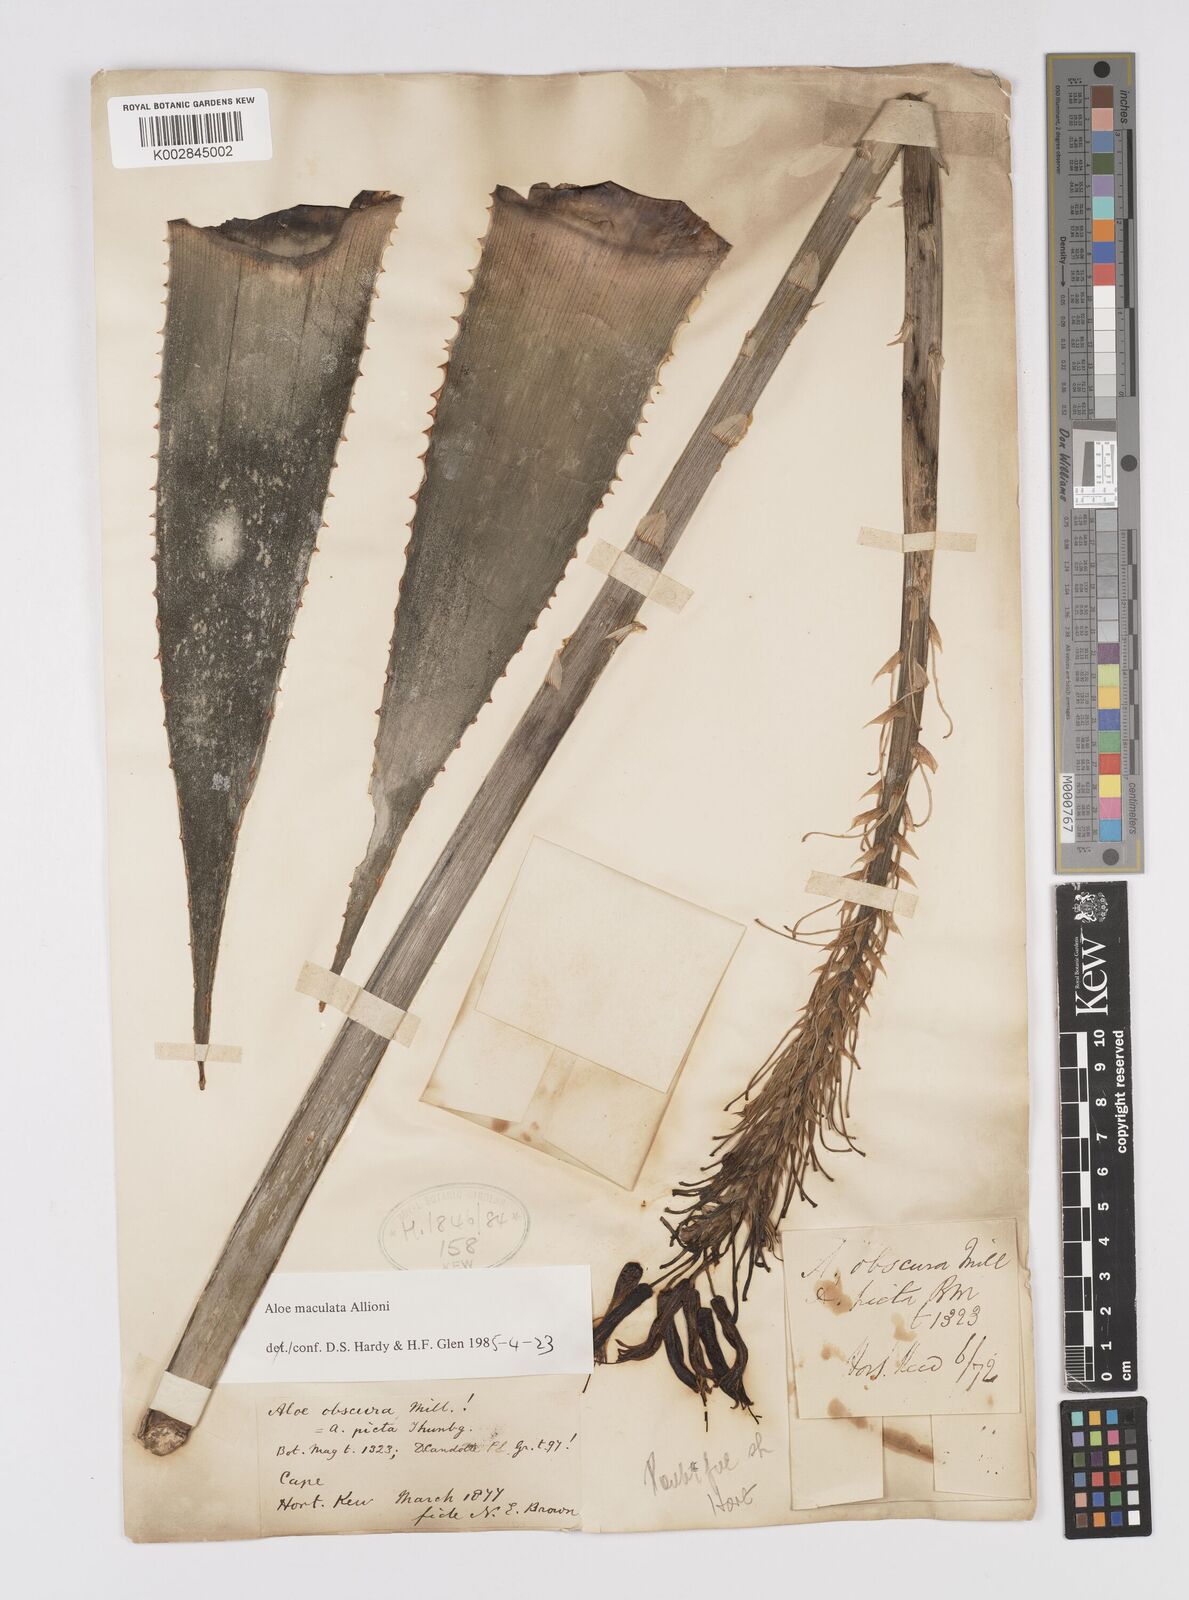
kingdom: Plantae
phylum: Tracheophyta
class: Liliopsida
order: Asparagales
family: Asphodelaceae
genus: Aloe
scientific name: Aloe microstigma
